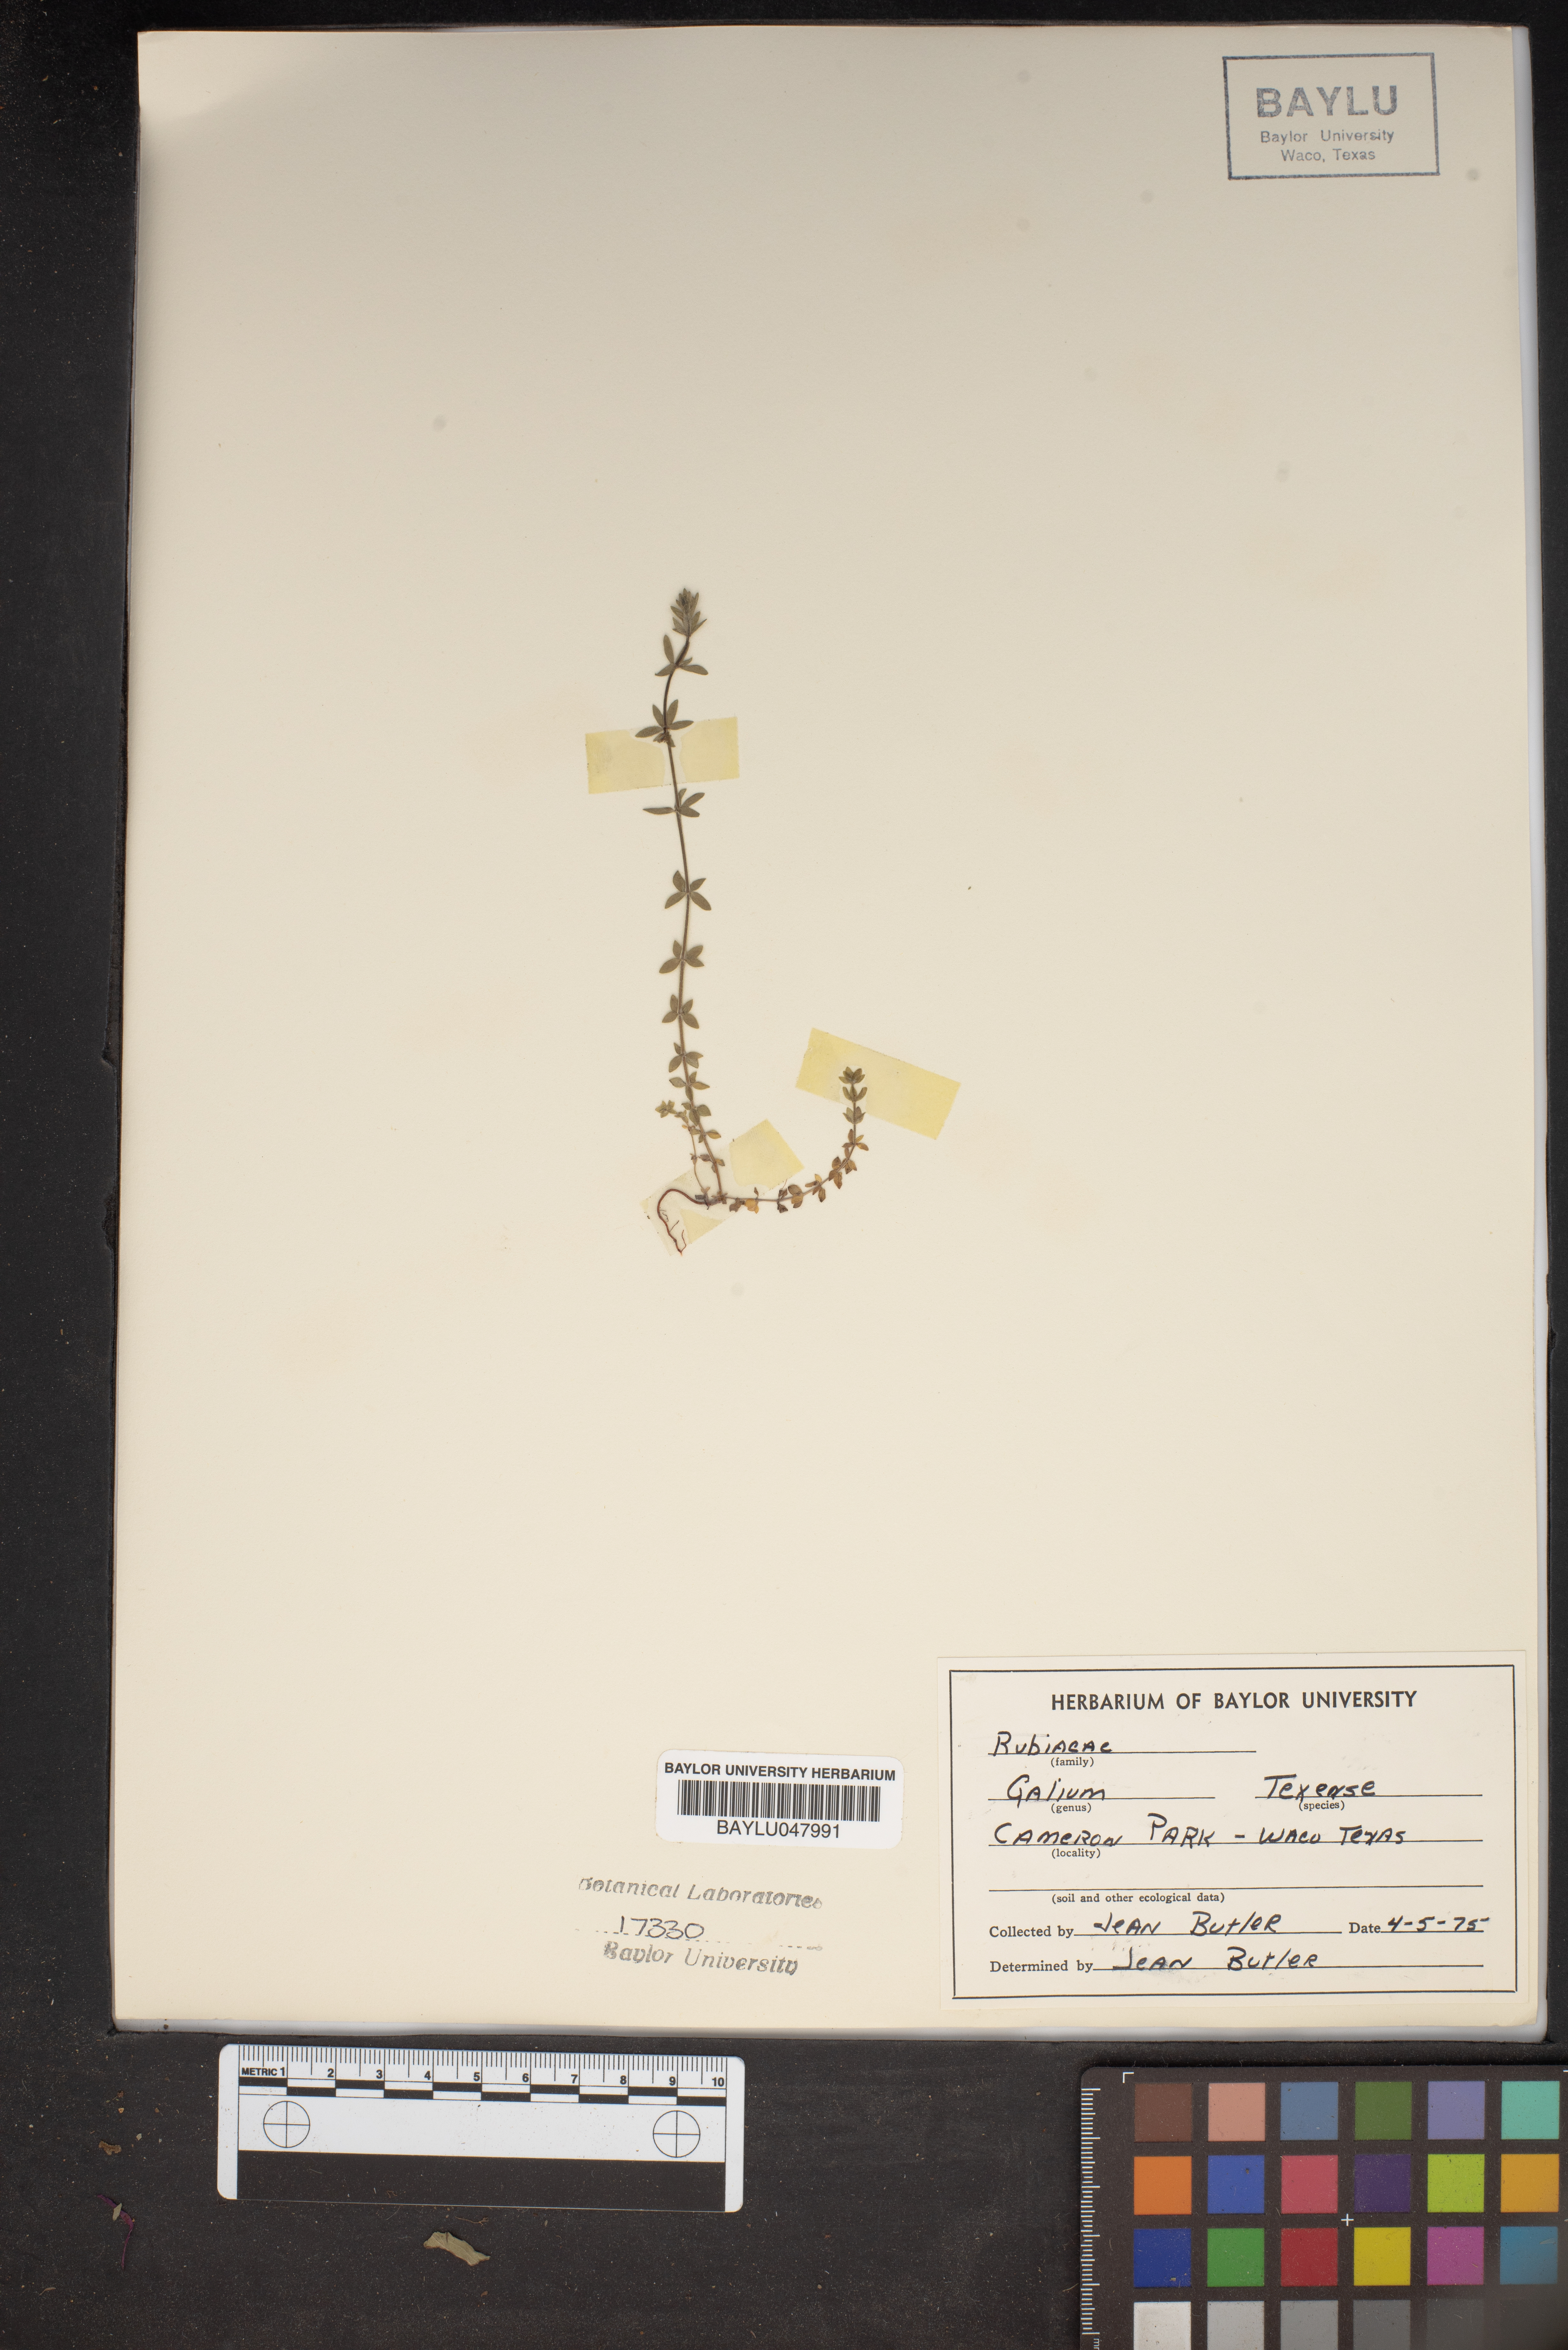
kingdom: Plantae
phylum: Tracheophyta
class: Magnoliopsida
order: Gentianales
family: Rubiaceae
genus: Galium
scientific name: Galium texense
